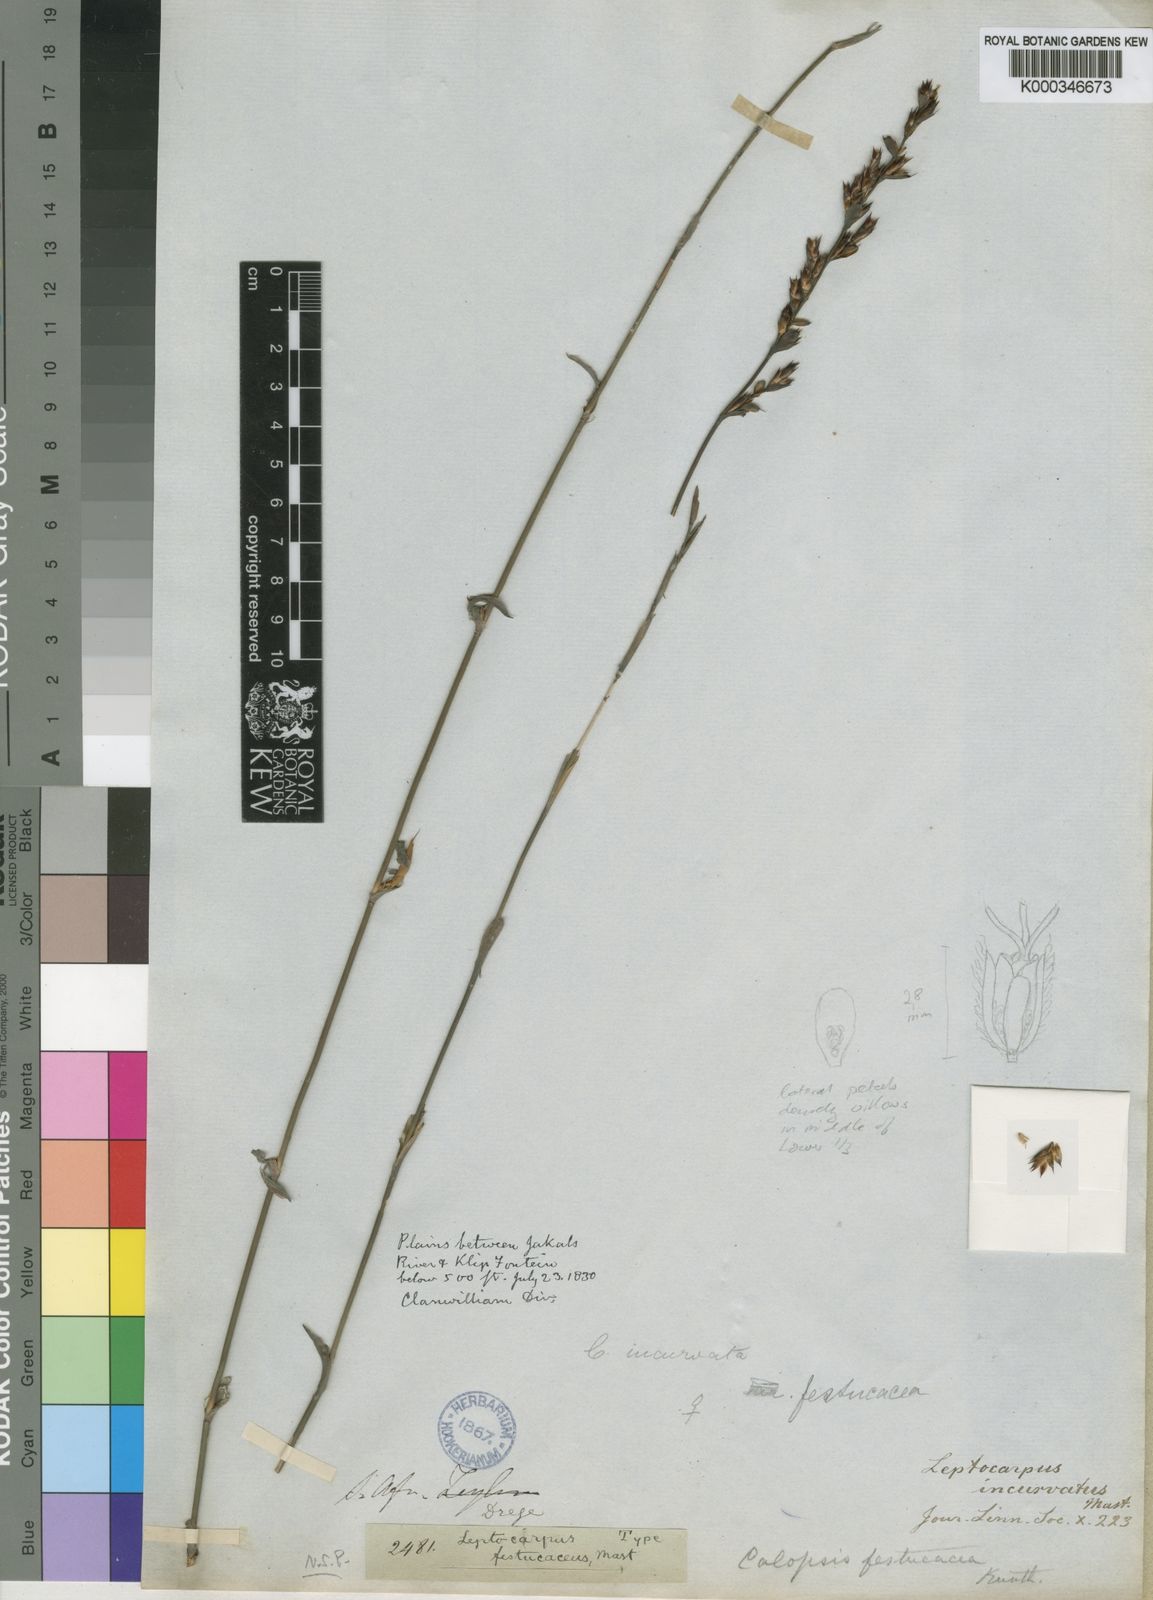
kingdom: Plantae
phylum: Tracheophyta
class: Liliopsida
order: Poales
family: Restionaceae
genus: Restio
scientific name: Restio vimineus
